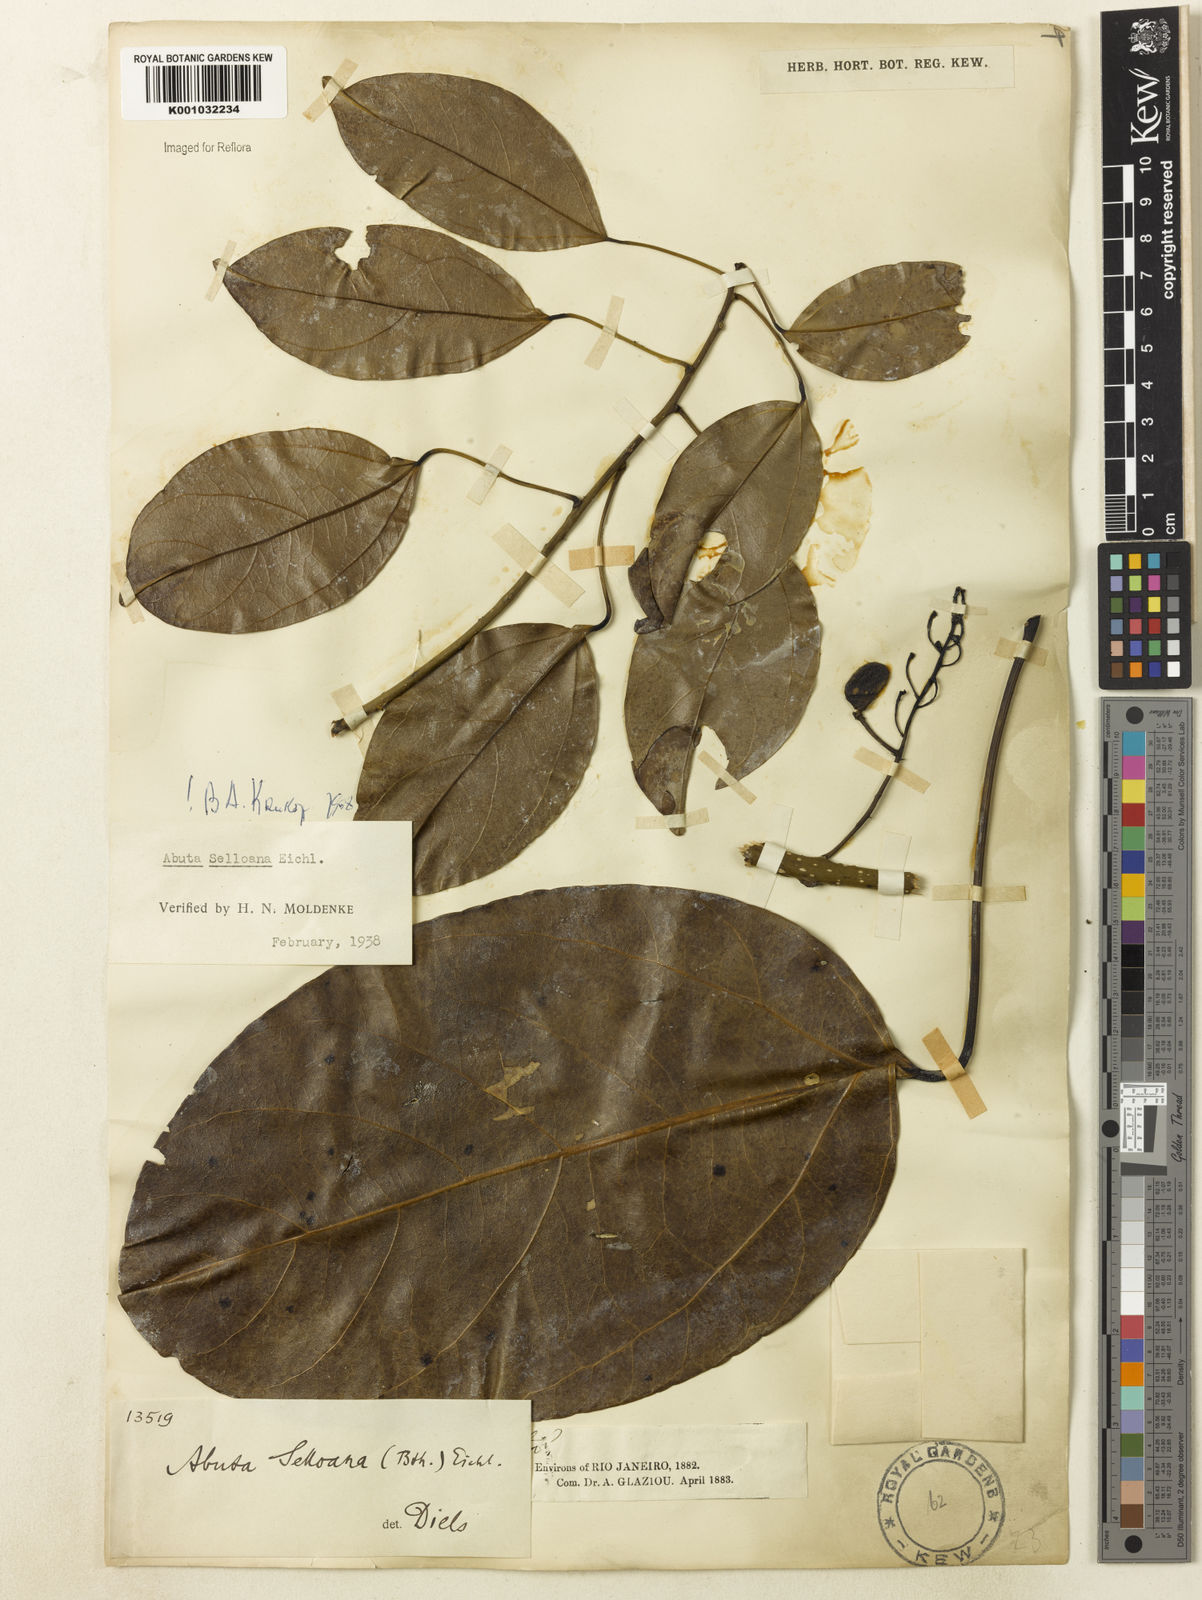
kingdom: Plantae
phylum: Tracheophyta
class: Magnoliopsida
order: Ranunculales
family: Menispermaceae
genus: Abuta
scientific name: Abuta selloana
